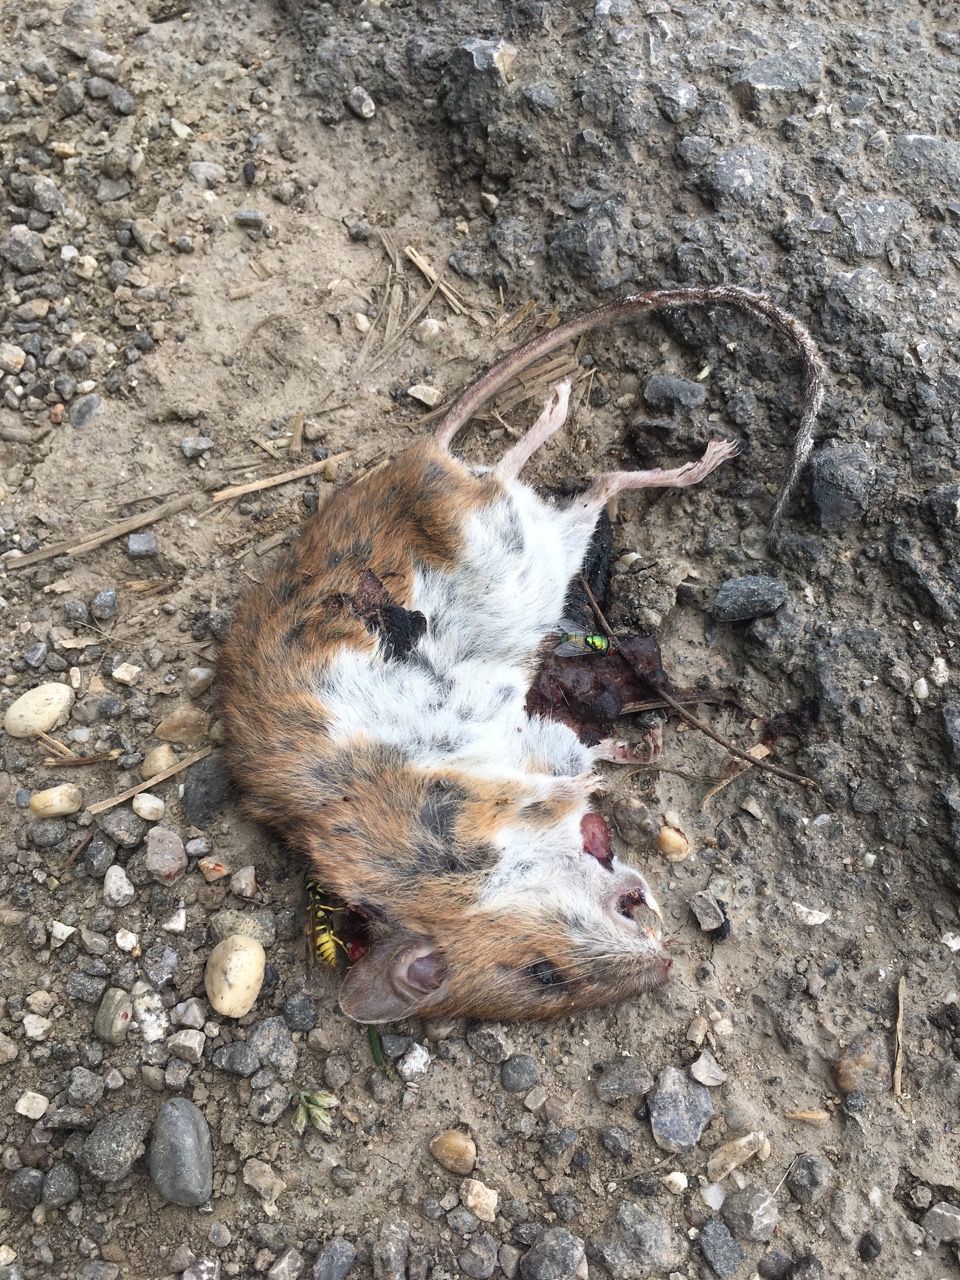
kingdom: Animalia
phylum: Chordata
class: Mammalia
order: Rodentia
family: Muridae
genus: Apodemus
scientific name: Apodemus
